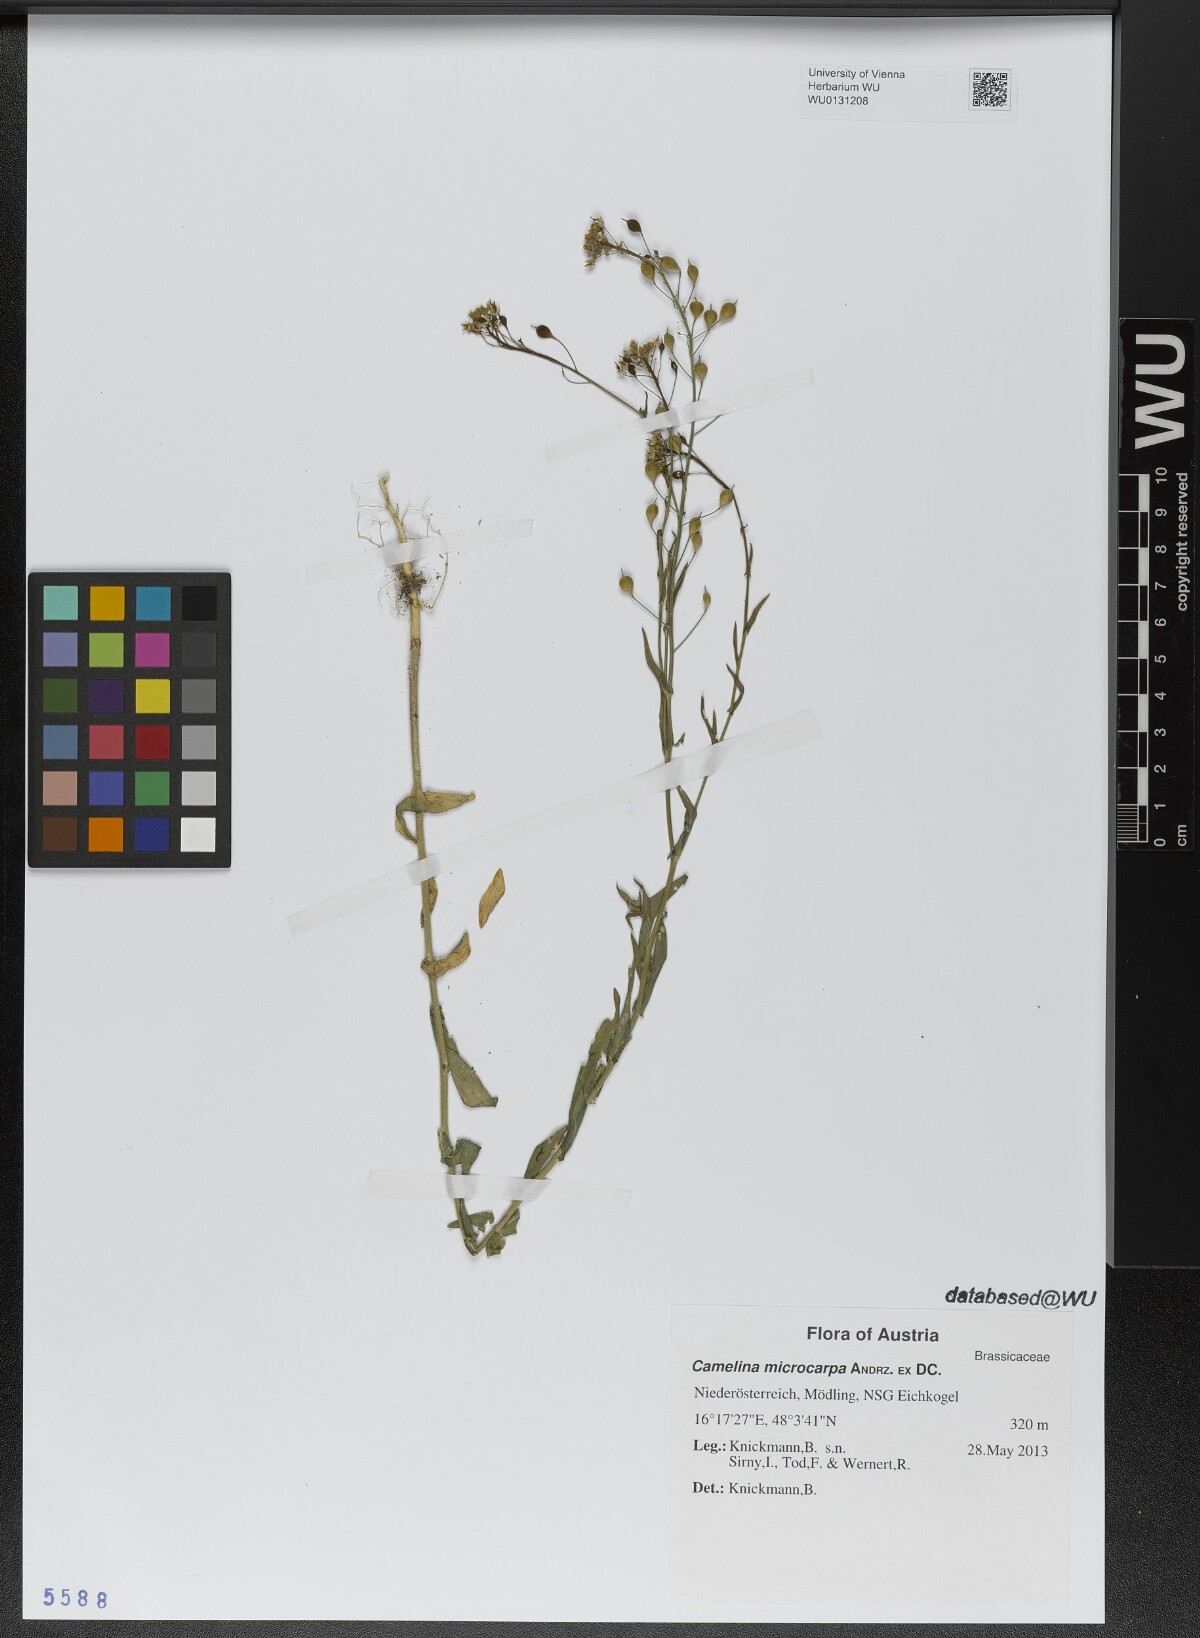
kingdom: Plantae
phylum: Tracheophyta
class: Magnoliopsida
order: Brassicales
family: Brassicaceae
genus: Camelina
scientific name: Camelina microcarpa
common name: Lesser gold-of-pleasure
